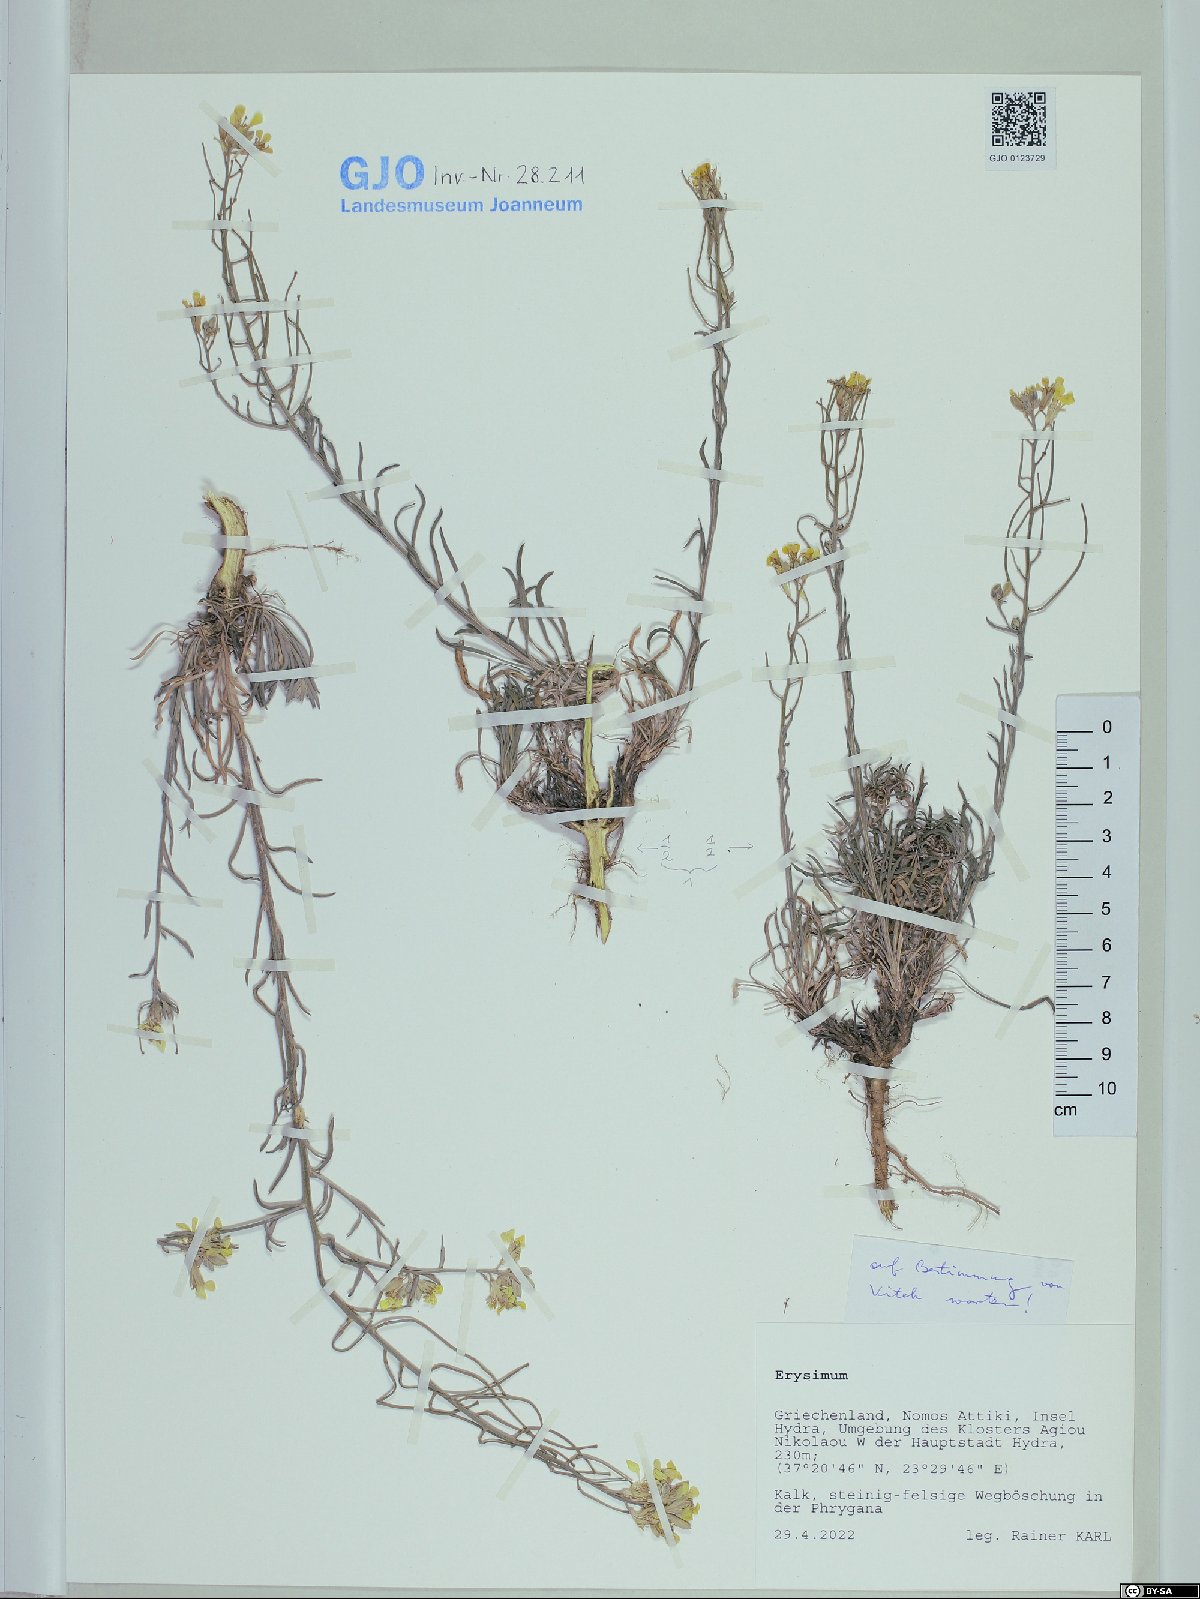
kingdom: Plantae
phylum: Tracheophyta
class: Magnoliopsida
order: Brassicales
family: Brassicaceae
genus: Erysimum
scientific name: Erysimum
